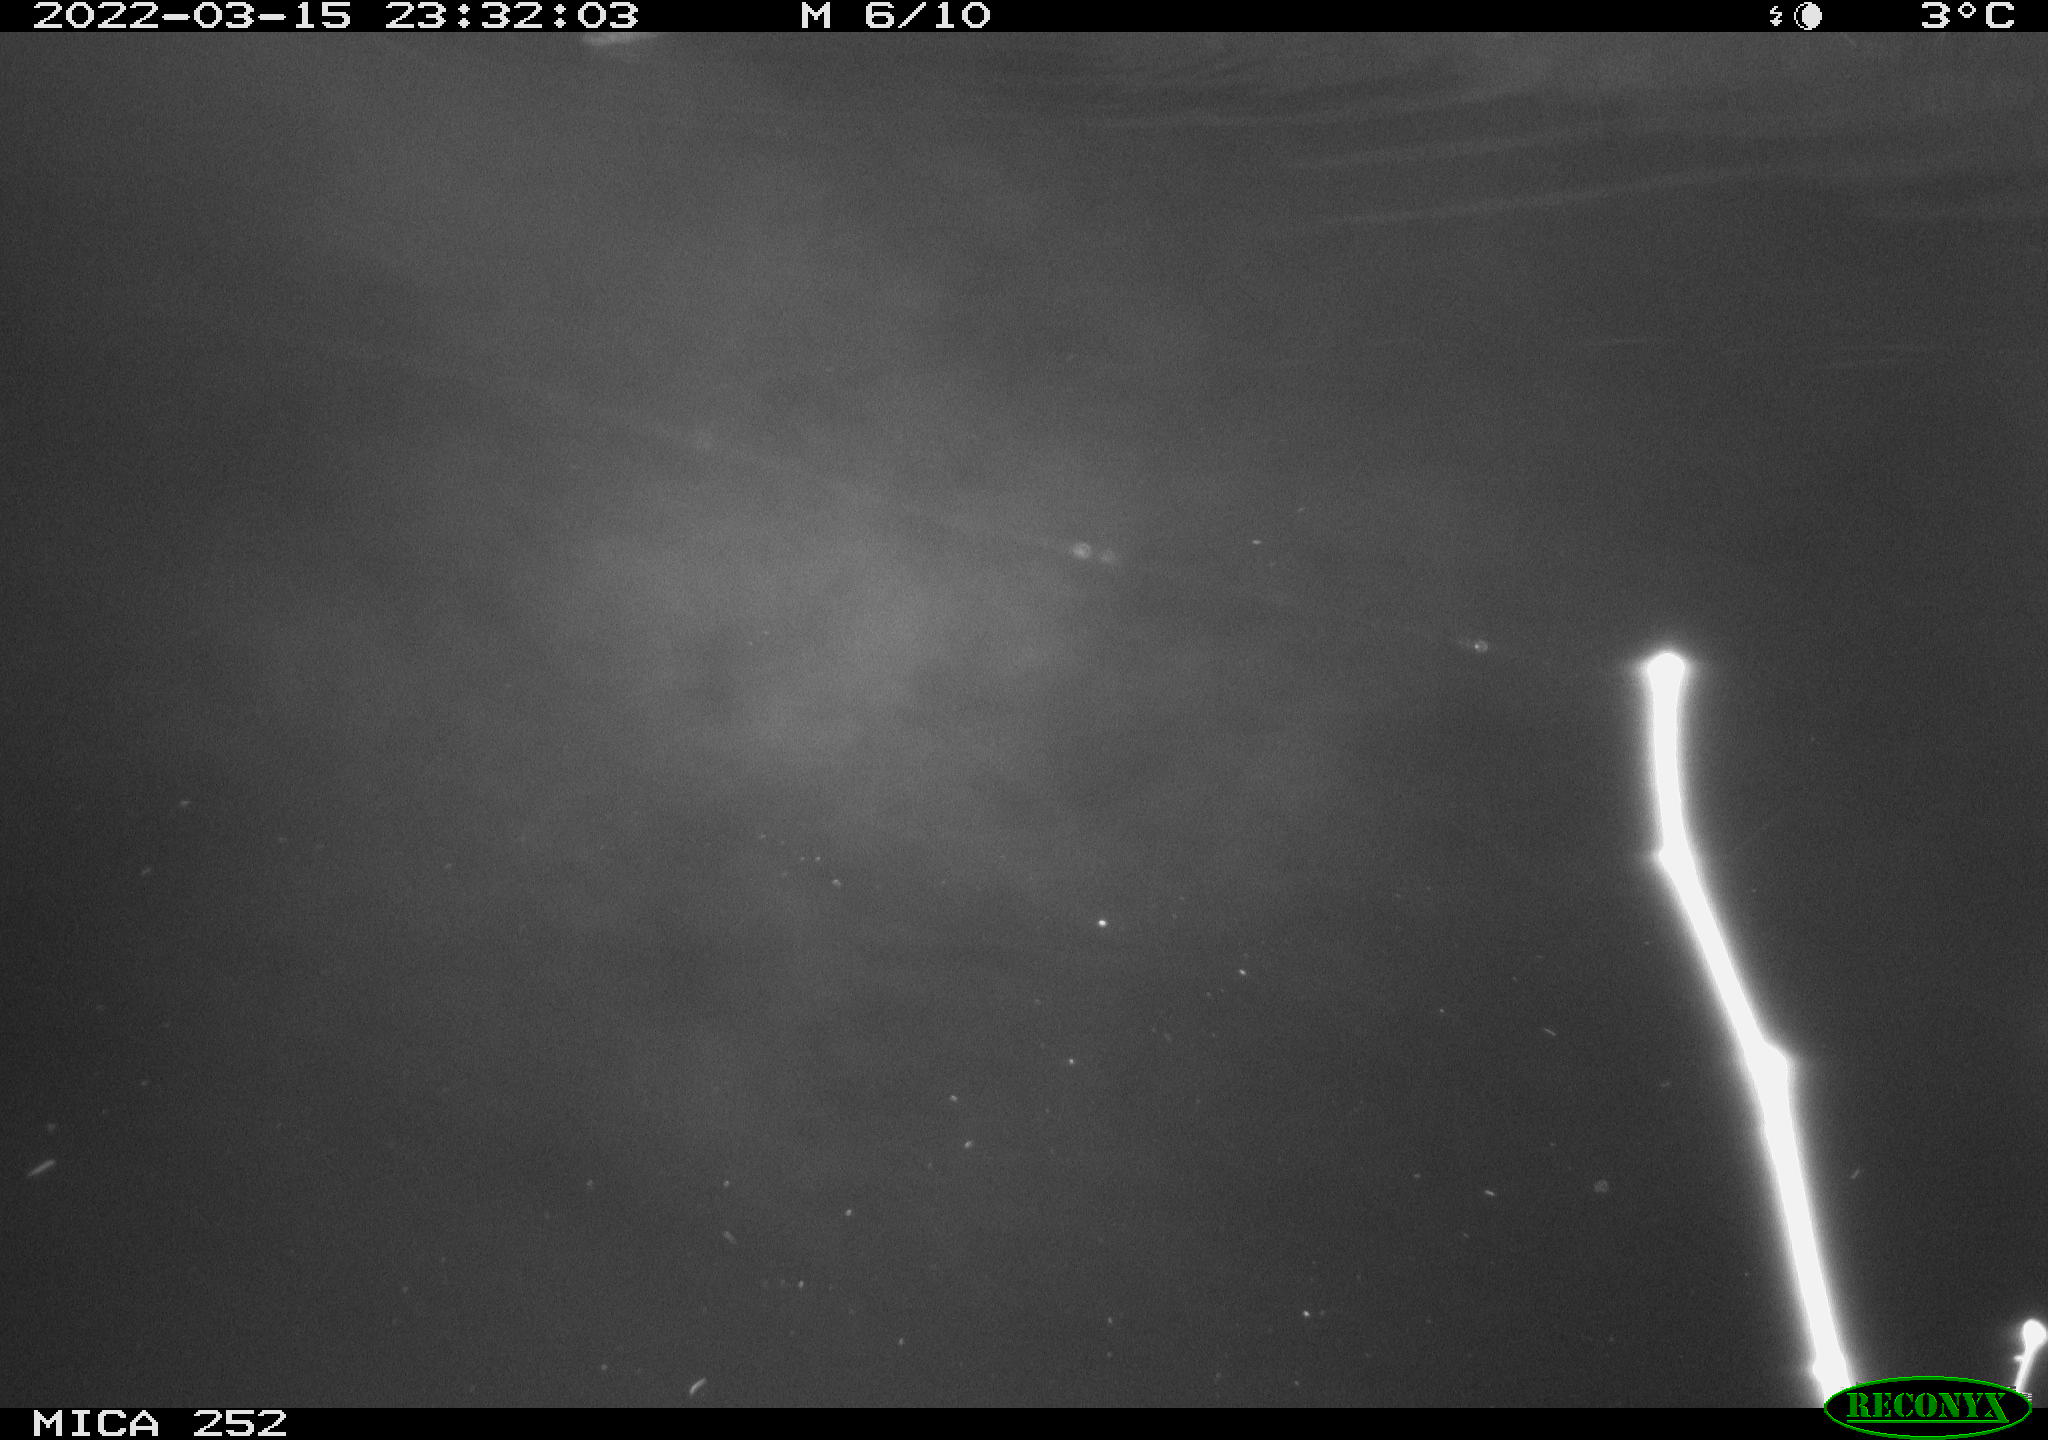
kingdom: Animalia
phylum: Chordata
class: Mammalia
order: Rodentia
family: Castoridae
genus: Castor
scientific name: Castor fiber
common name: Eurasian beaver
